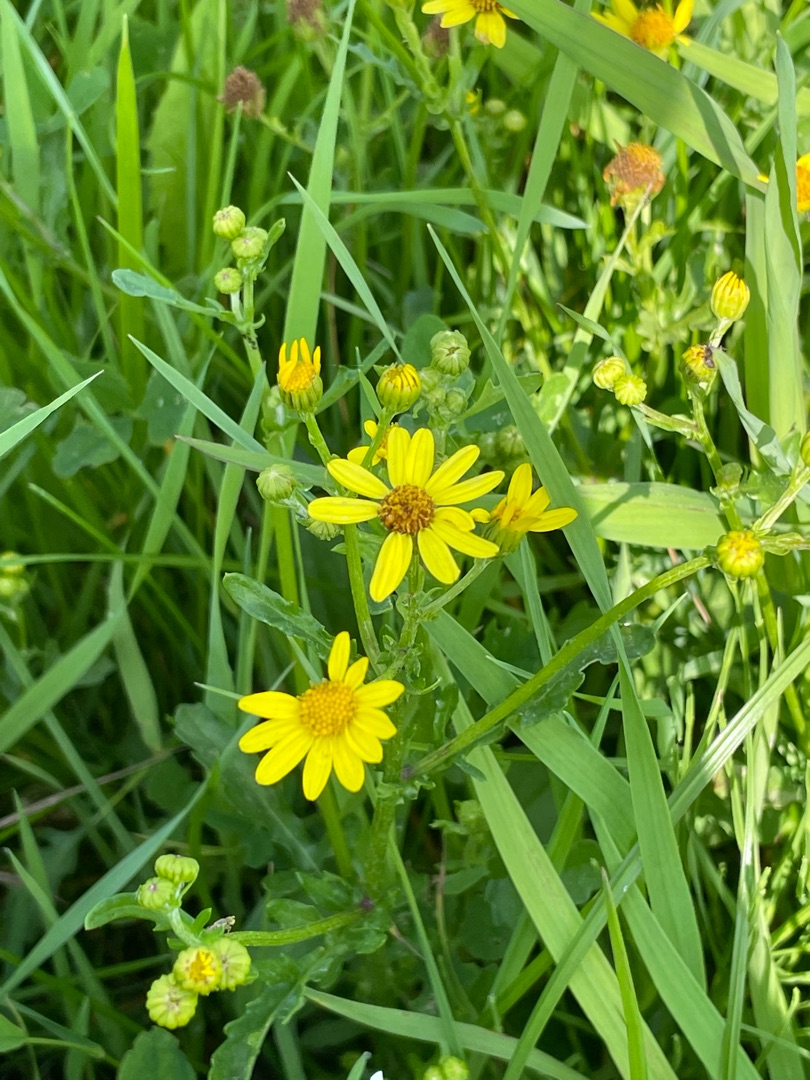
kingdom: Plantae
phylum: Tracheophyta
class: Magnoliopsida
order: Asterales
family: Asteraceae
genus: Jacobaea
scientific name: Jacobaea aquatica
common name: Vand-brandbæger
